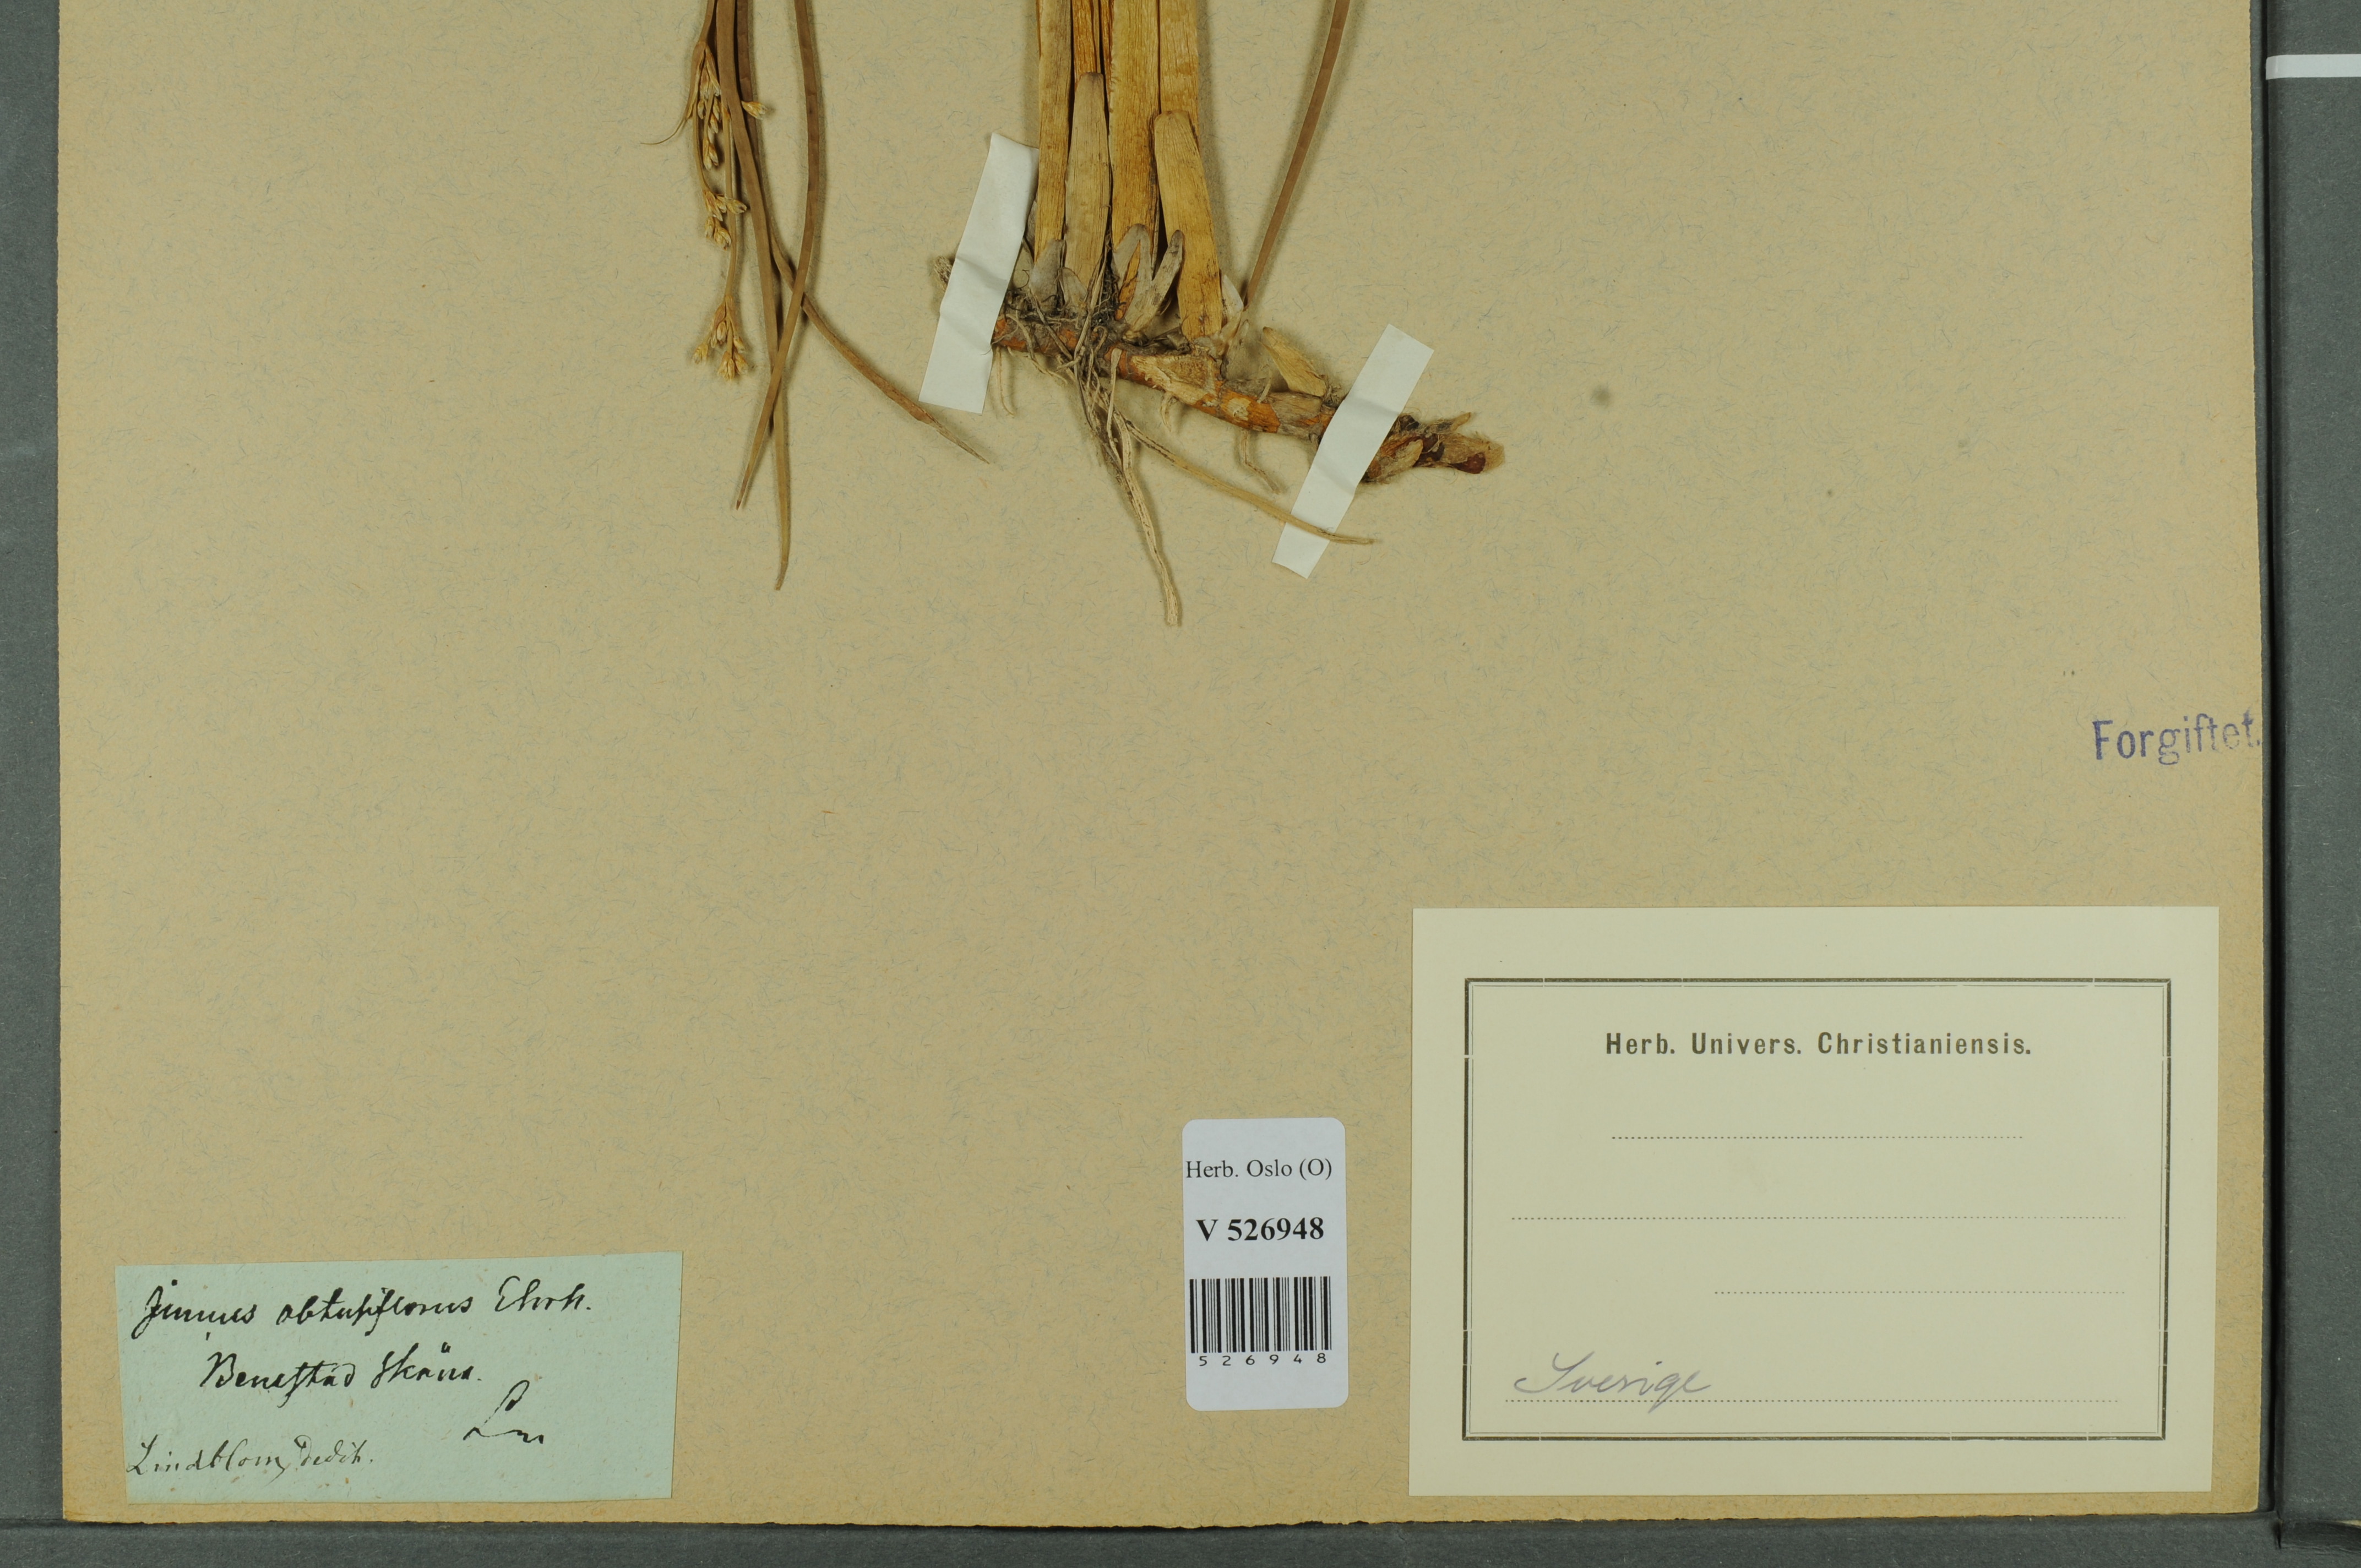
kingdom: Plantae
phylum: Tracheophyta
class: Liliopsida
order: Poales
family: Juncaceae
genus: Juncus
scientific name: Juncus subnodulosus
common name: Blunt-flowered rush
